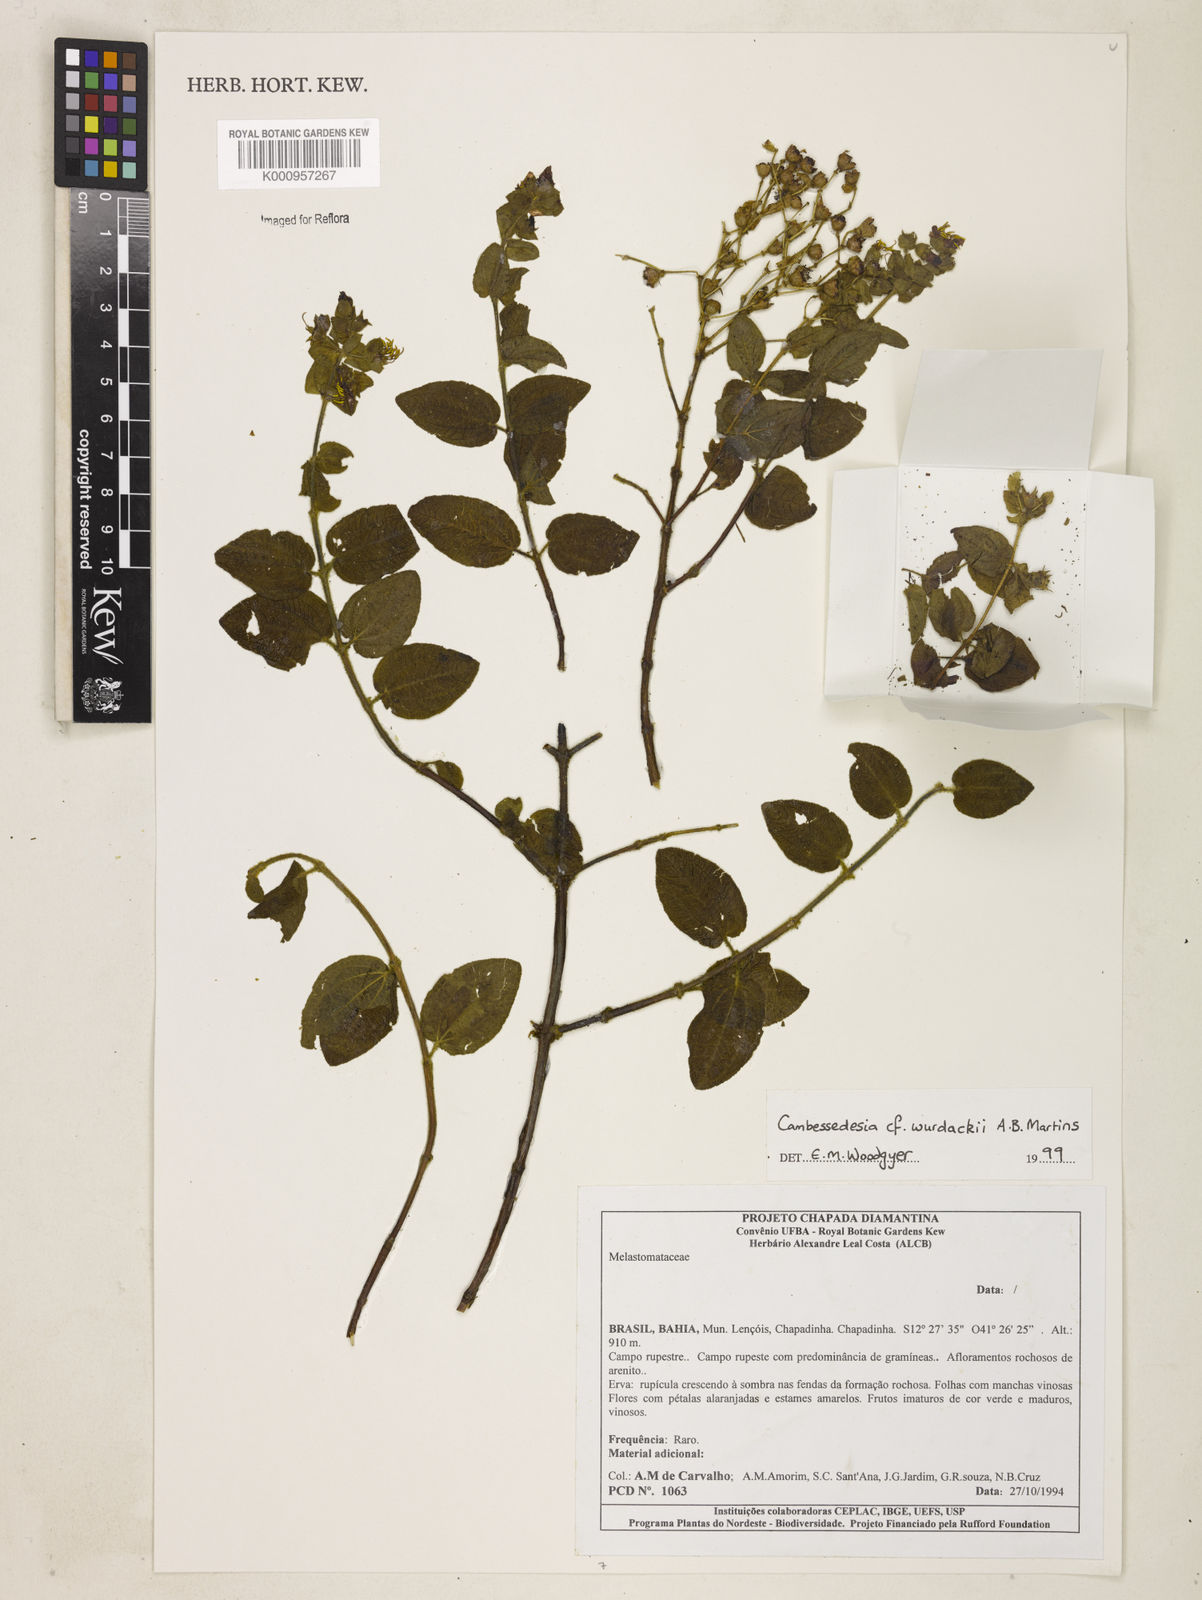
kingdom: Plantae
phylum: Tracheophyta
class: Magnoliopsida
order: Myrtales
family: Melastomataceae
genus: Cambessedesia
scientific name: Cambessedesia wurdackii
